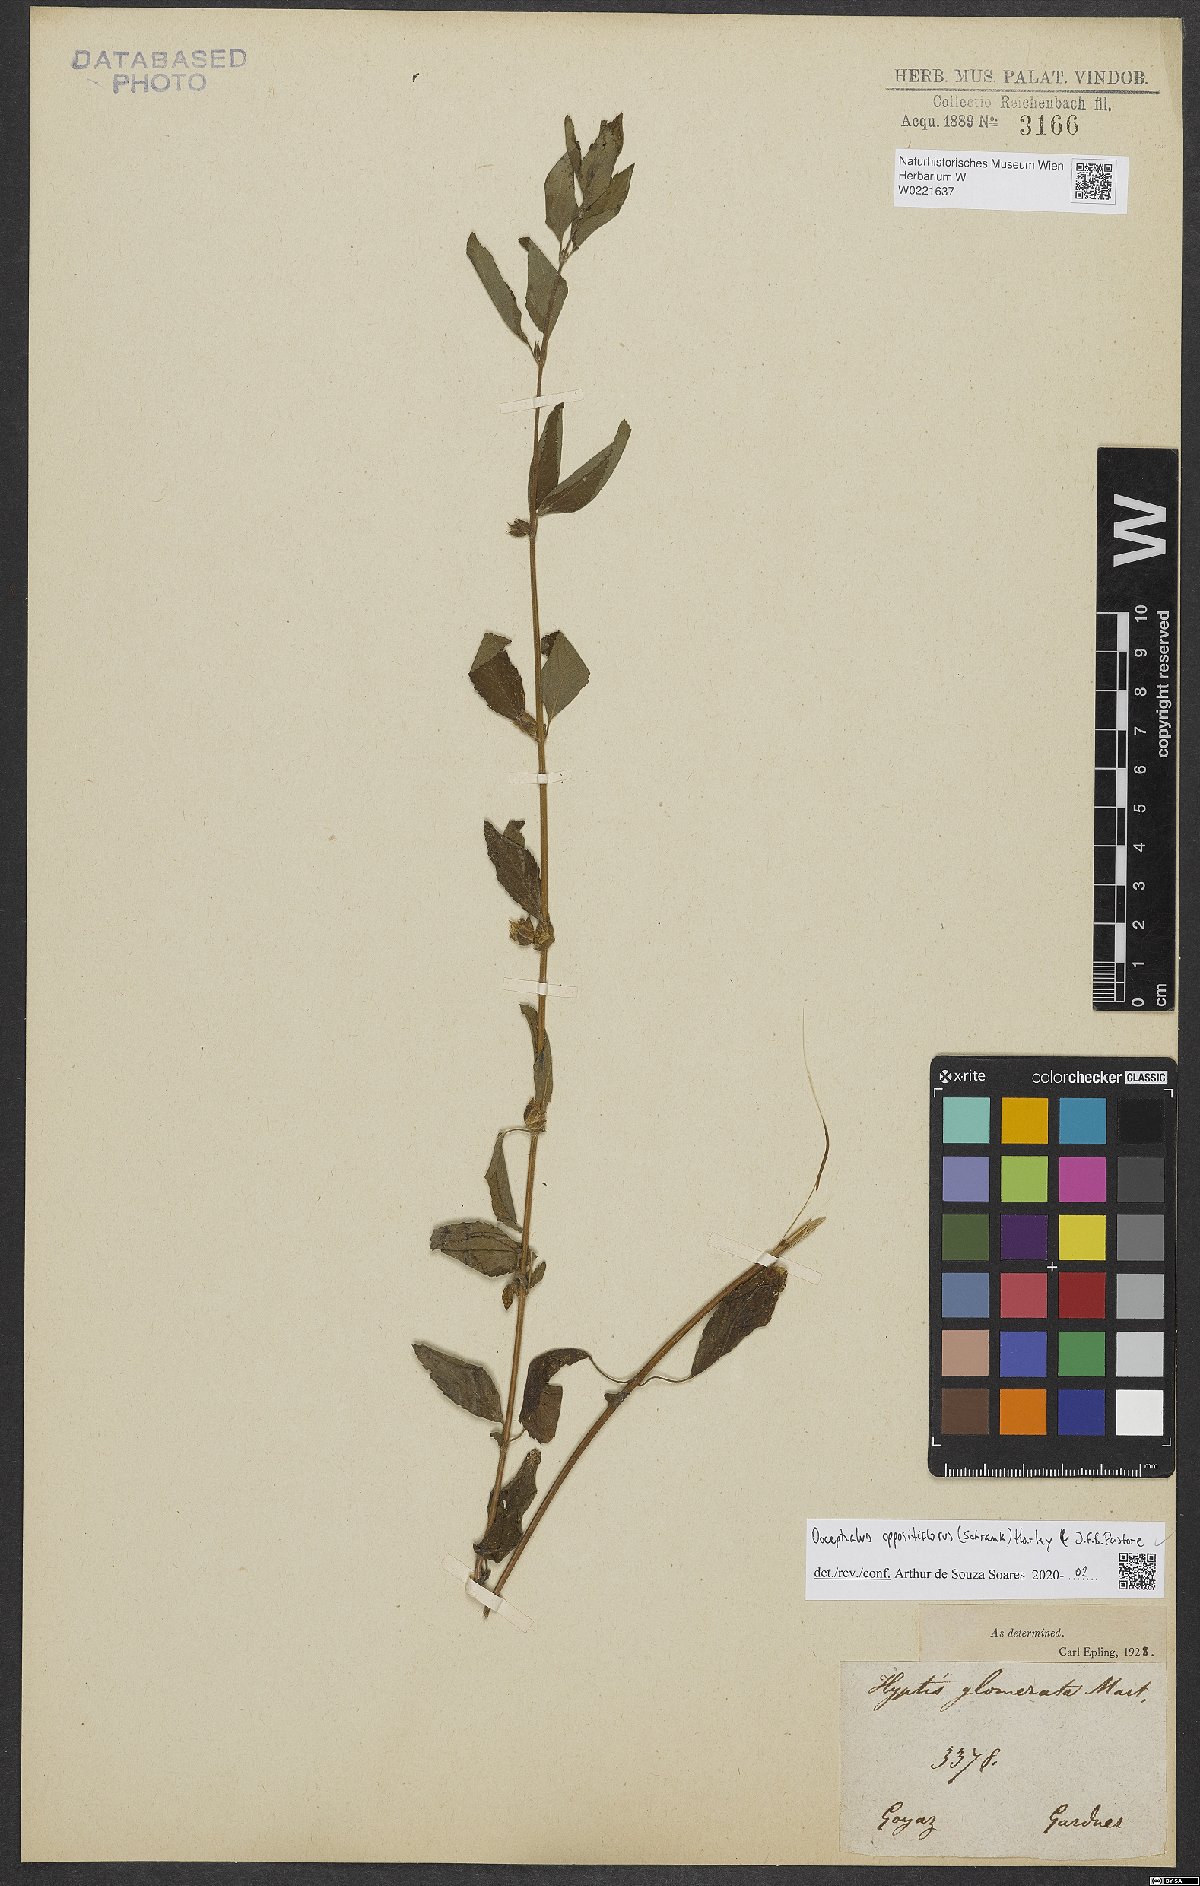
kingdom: Plantae
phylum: Tracheophyta
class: Magnoliopsida
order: Lamiales
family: Lamiaceae
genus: Oocephalus
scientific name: Oocephalus oppositiflorus
